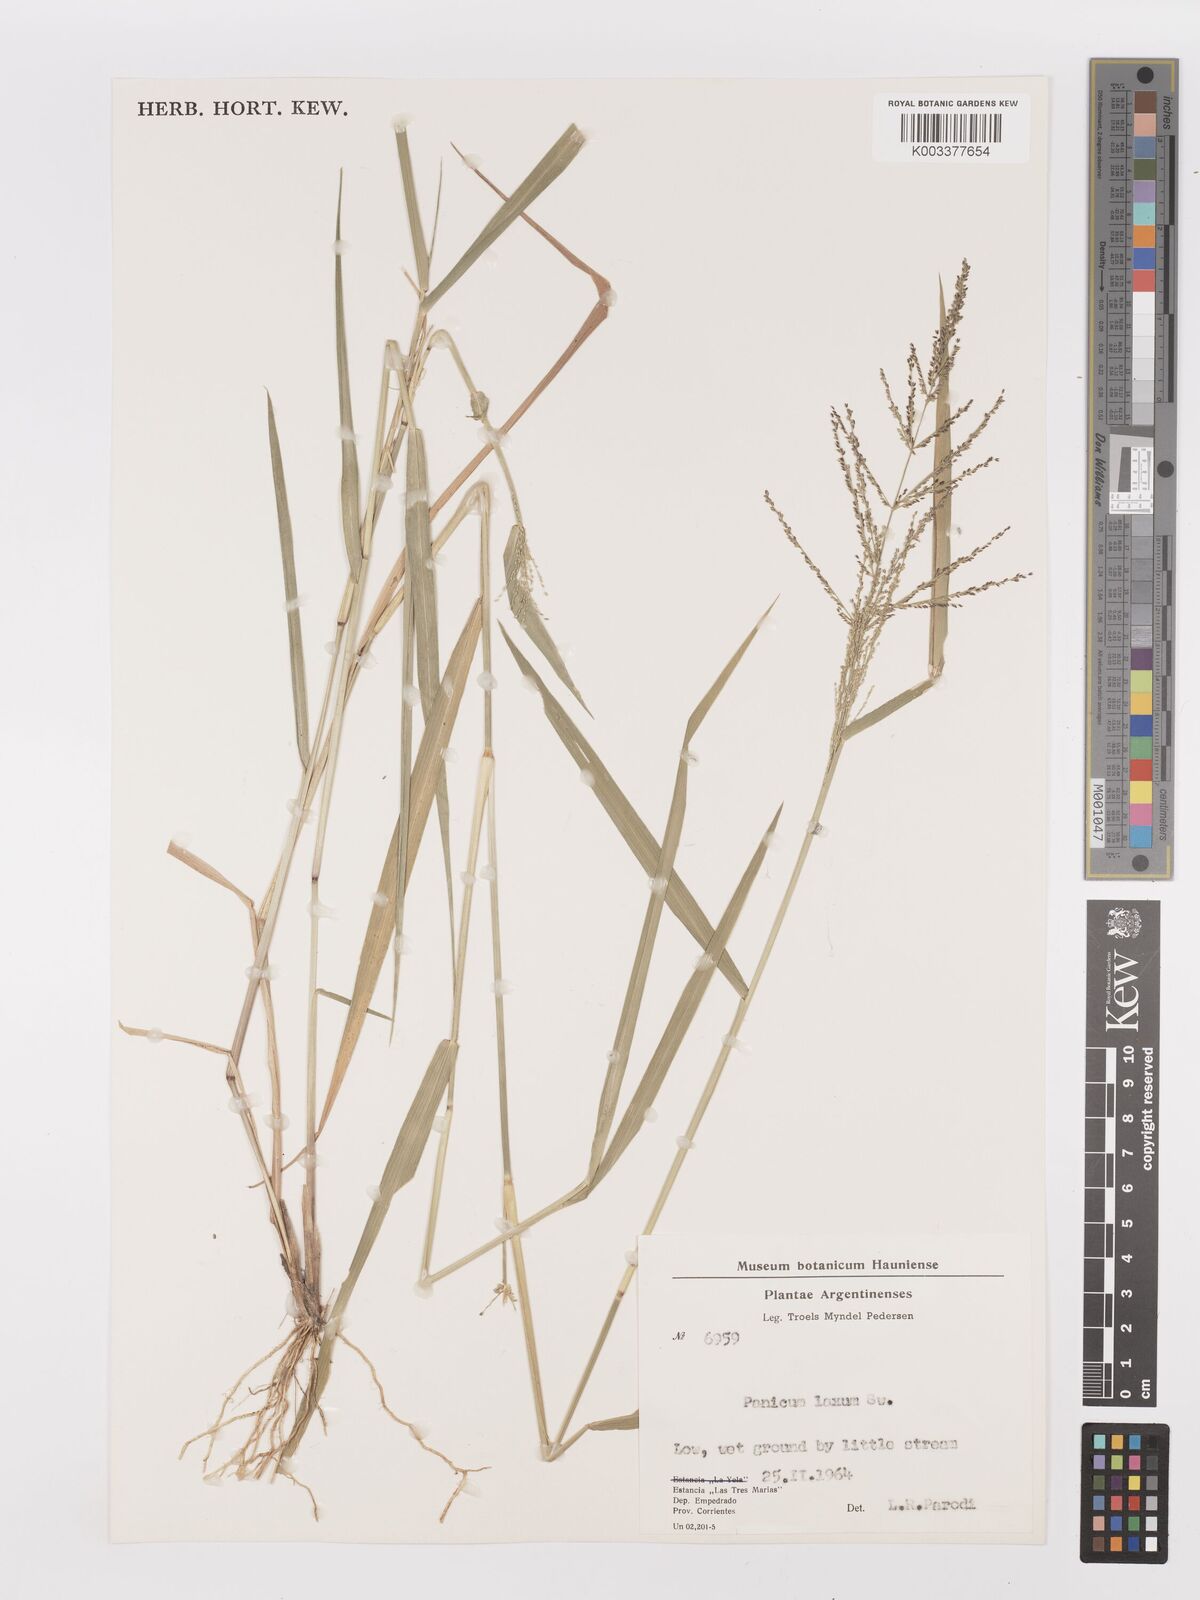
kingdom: Plantae
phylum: Tracheophyta
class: Liliopsida
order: Poales
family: Poaceae
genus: Steinchisma
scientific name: Steinchisma laxum
